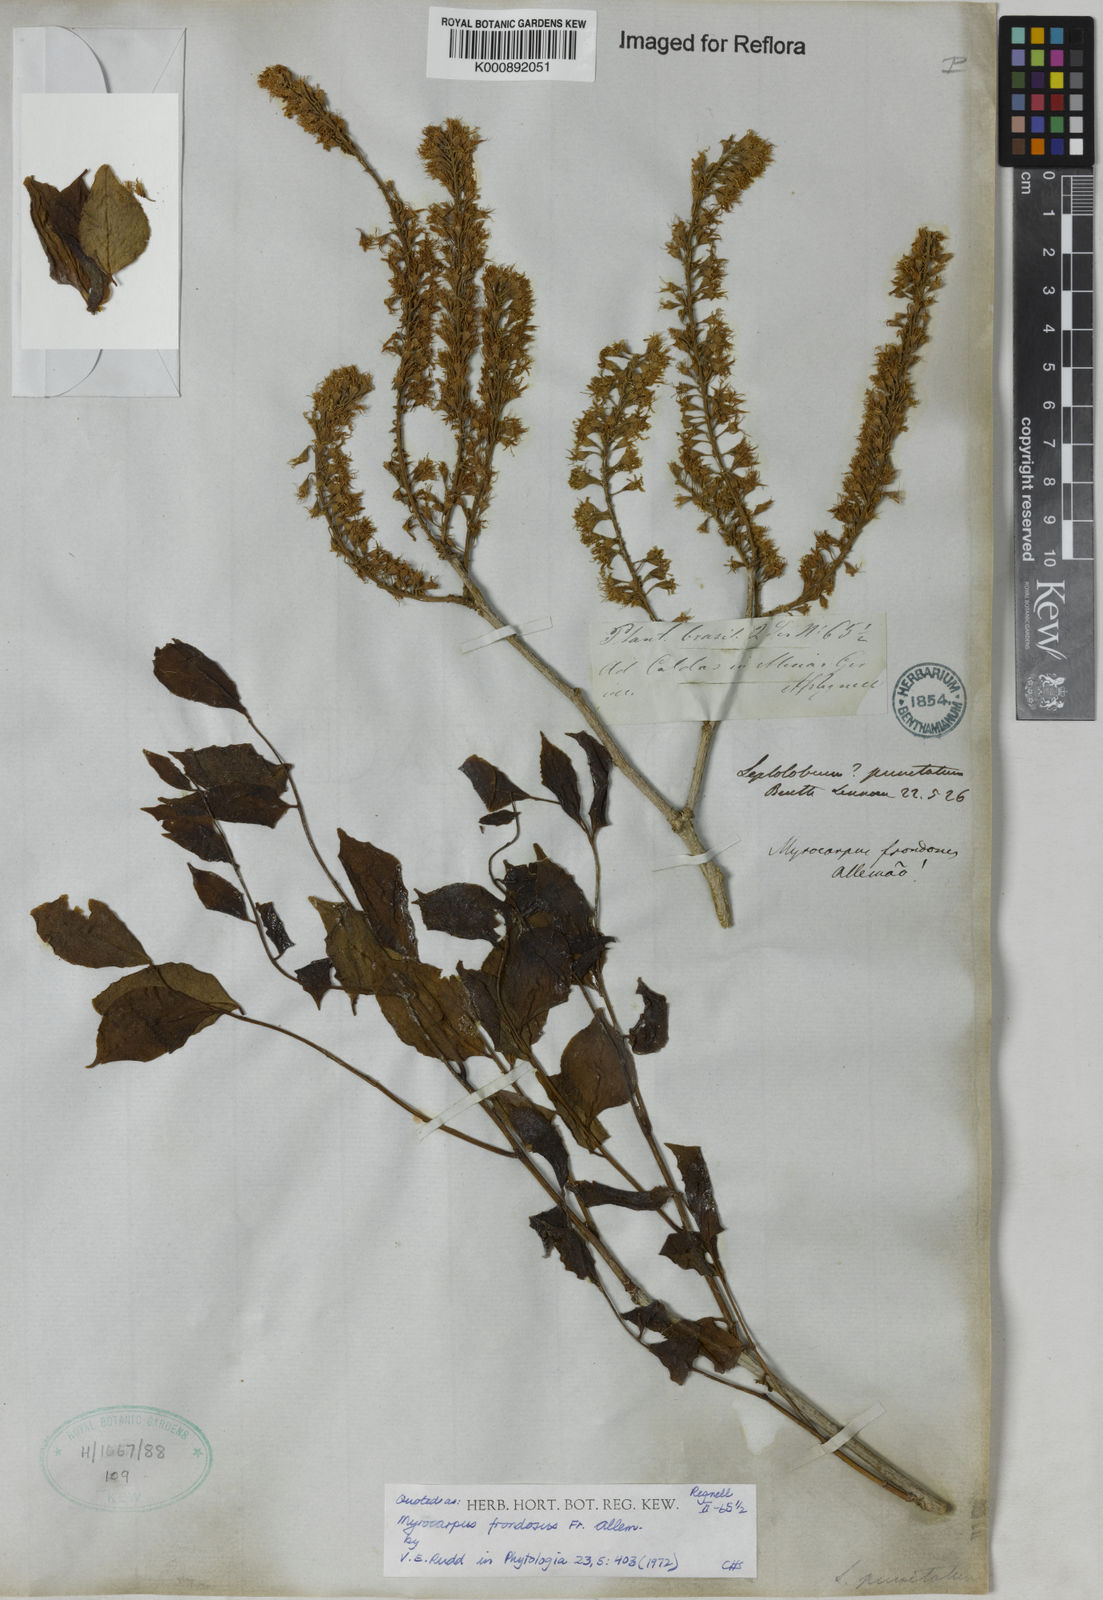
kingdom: Plantae
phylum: Tracheophyta
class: Magnoliopsida
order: Fabales
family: Fabaceae
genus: Myrocarpus
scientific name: Myrocarpus
